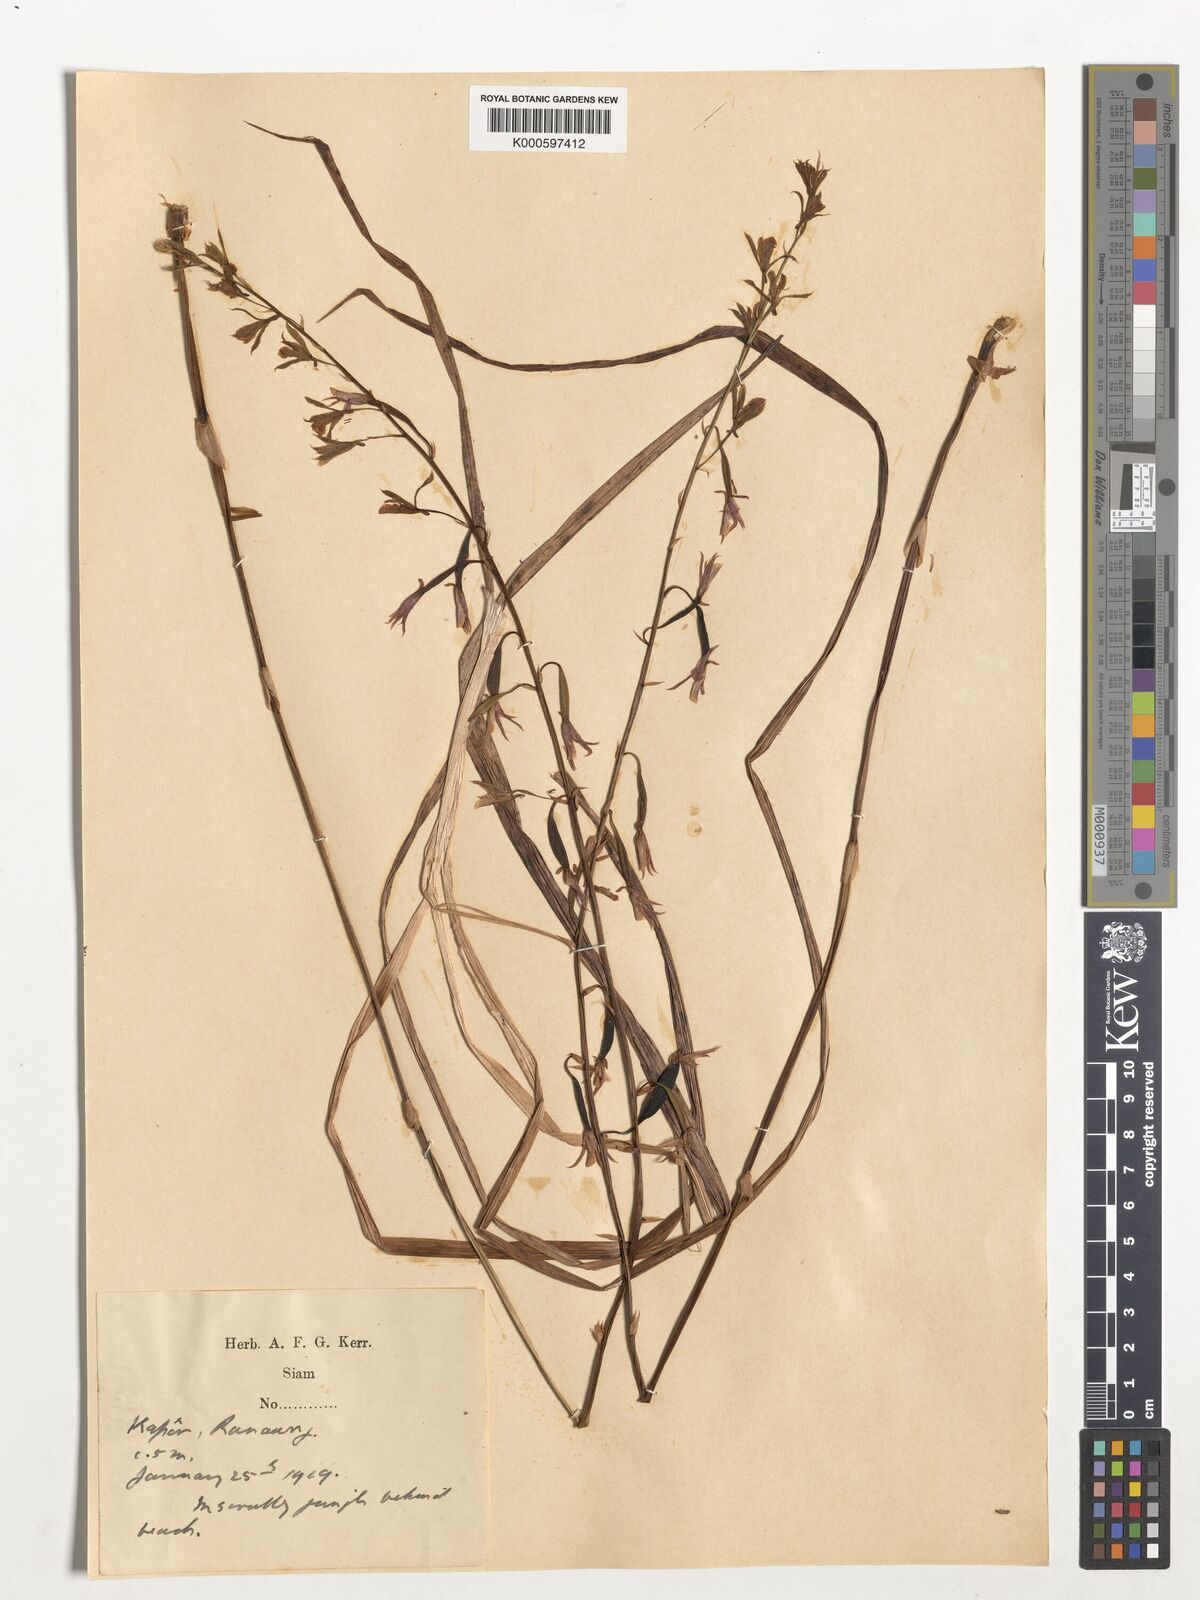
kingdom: Plantae
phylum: Tracheophyta
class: Liliopsida
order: Asparagales
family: Orchidaceae
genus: Eulophia
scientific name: Eulophia graminea
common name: Orchid
